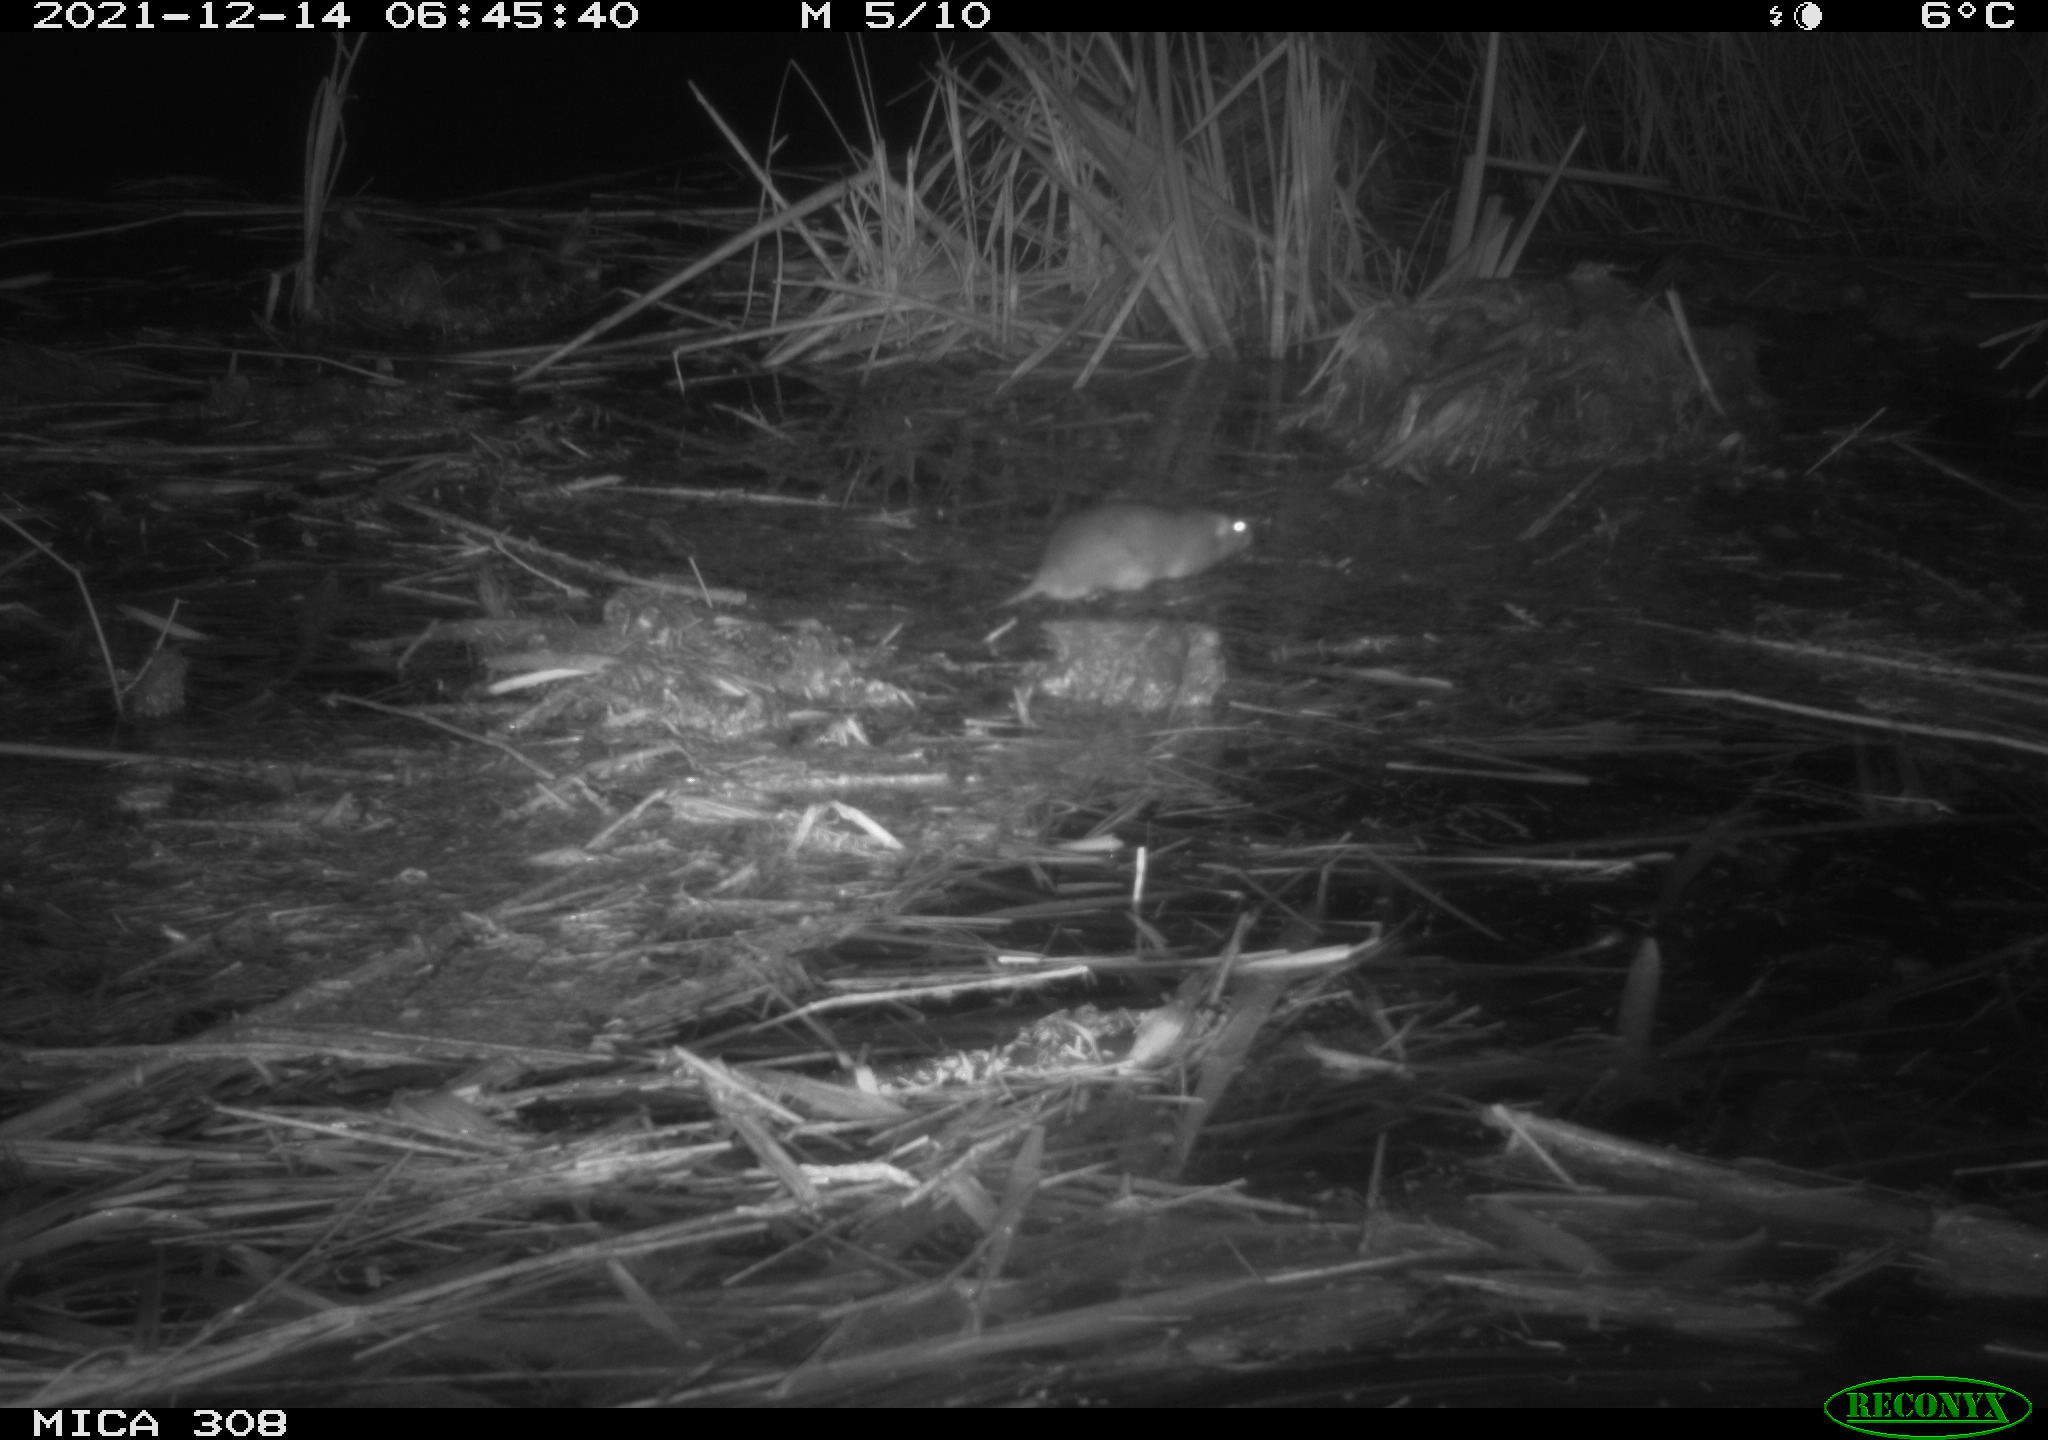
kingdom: Animalia
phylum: Chordata
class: Mammalia
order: Rodentia
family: Muridae
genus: Rattus
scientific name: Rattus norvegicus
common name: Brown rat
